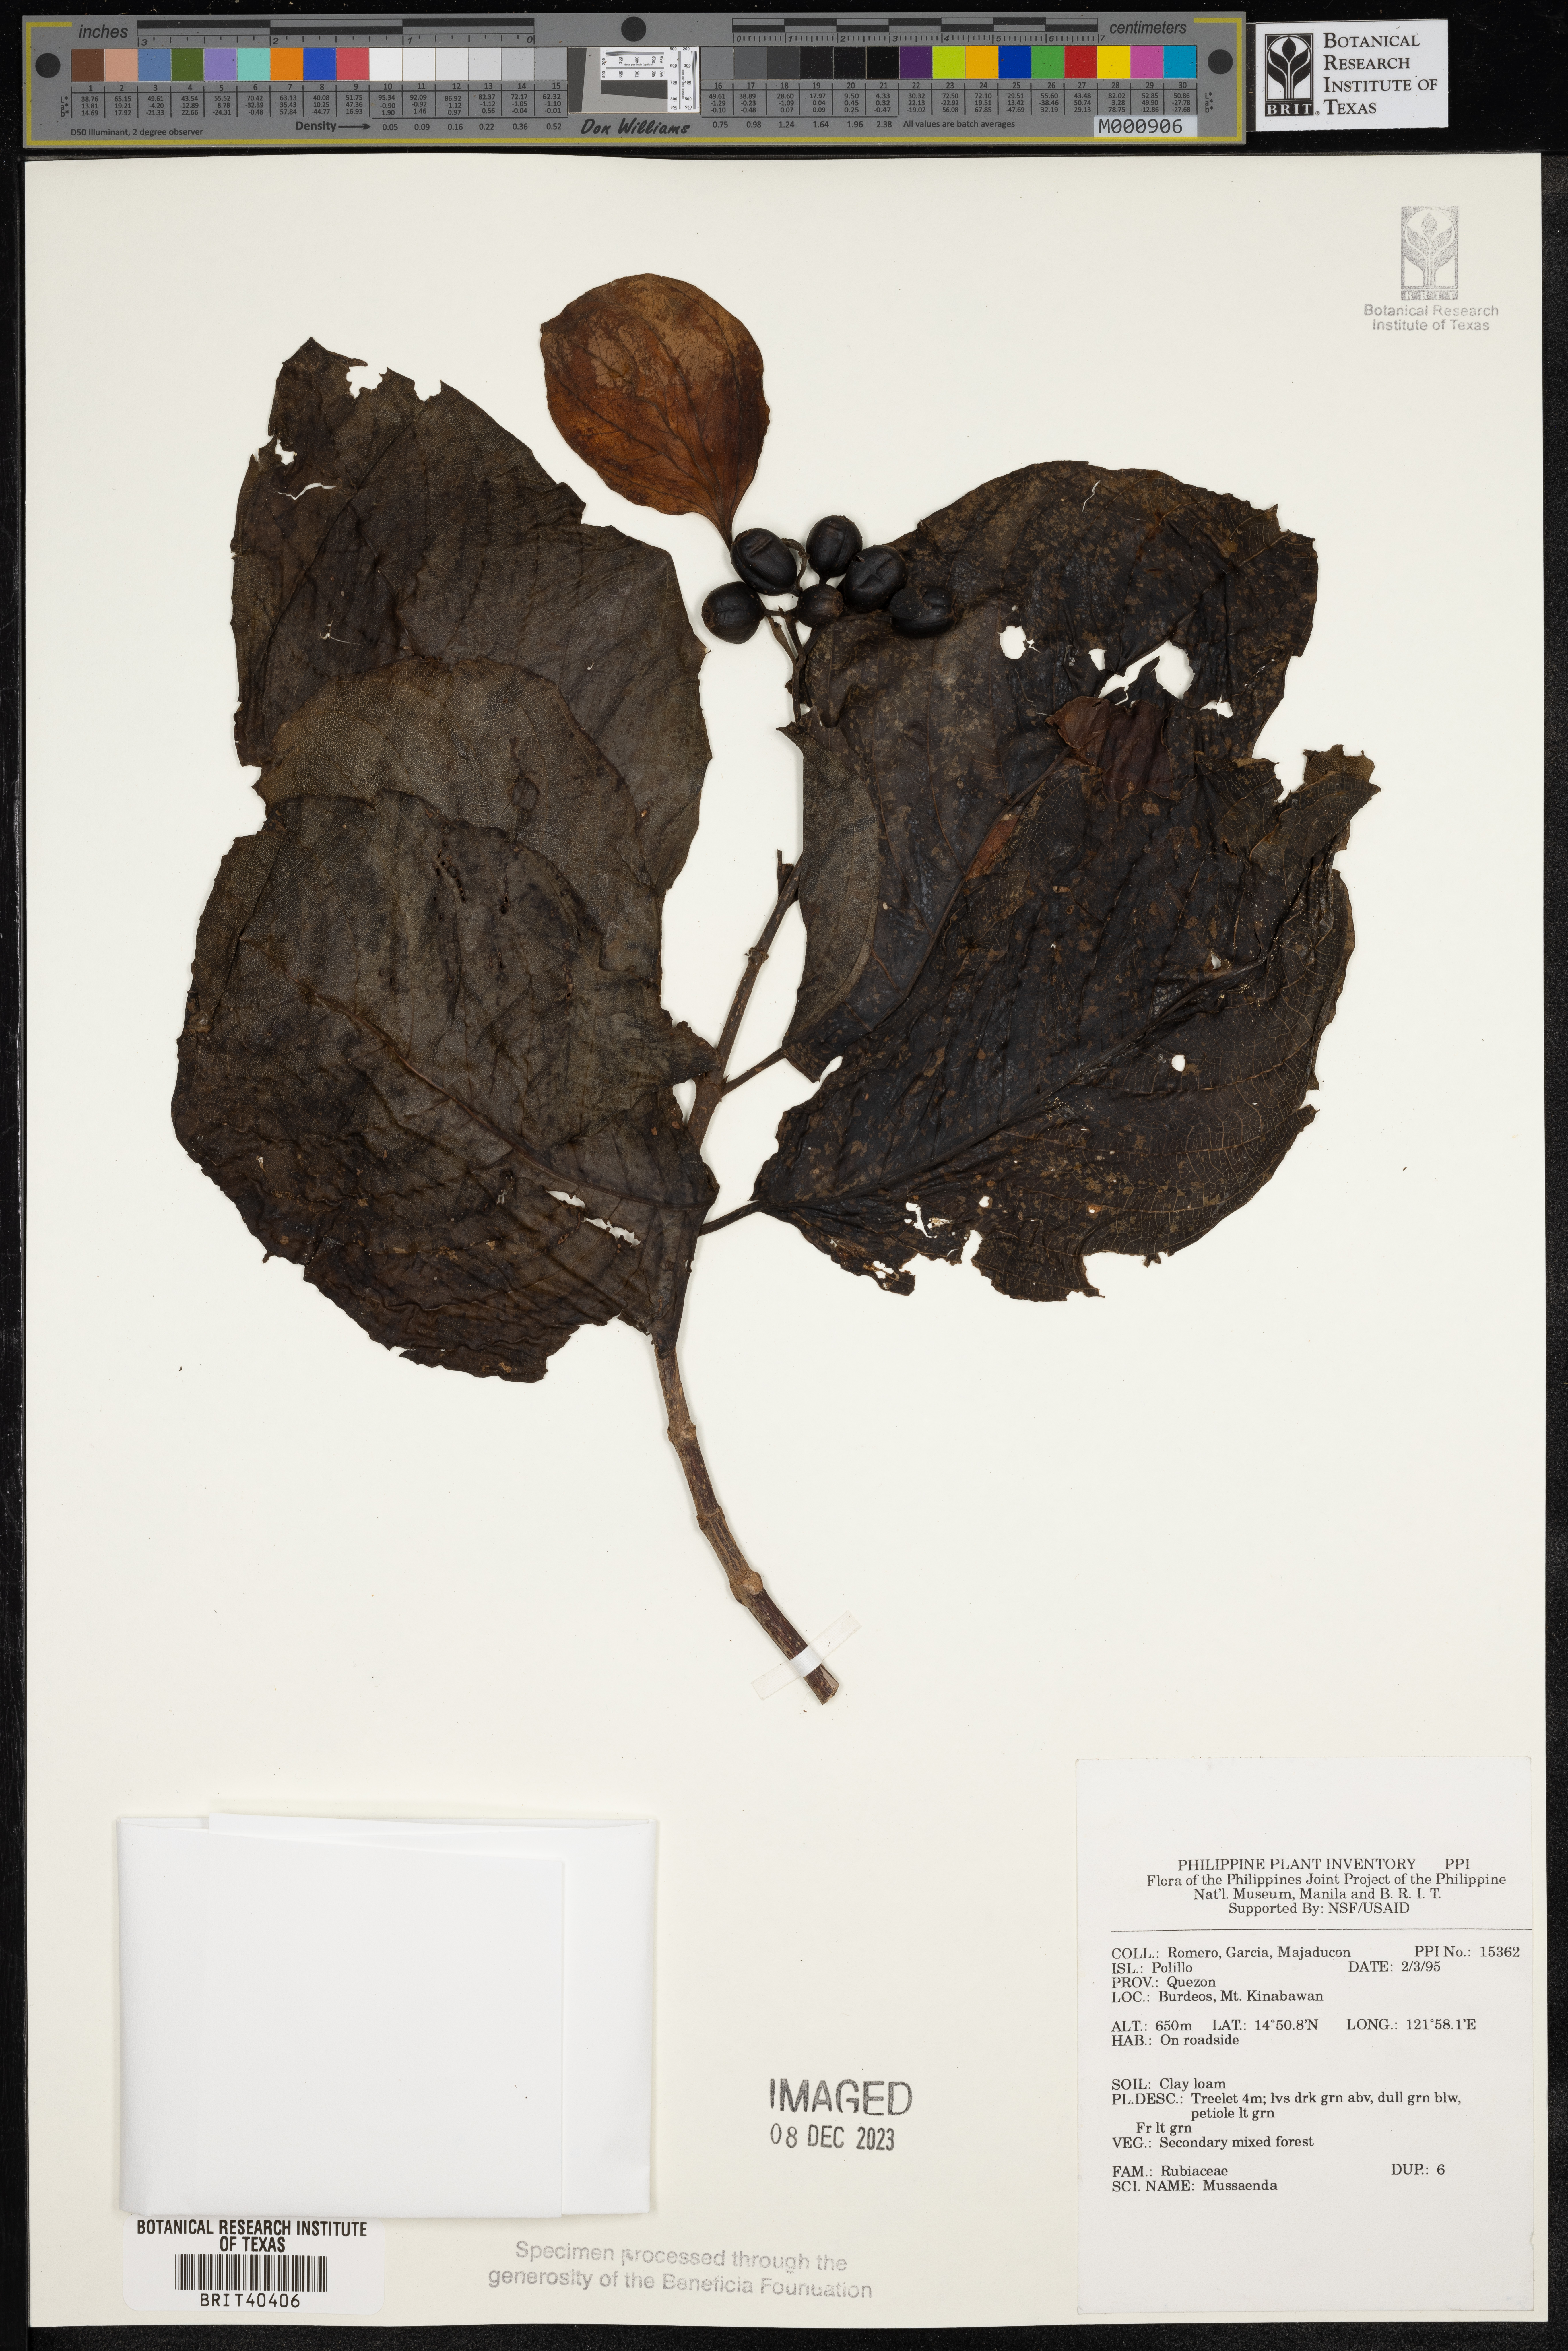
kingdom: Plantae
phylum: Tracheophyta
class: Magnoliopsida
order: Gentianales
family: Rubiaceae
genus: Mussaenda
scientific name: Mussaenda
